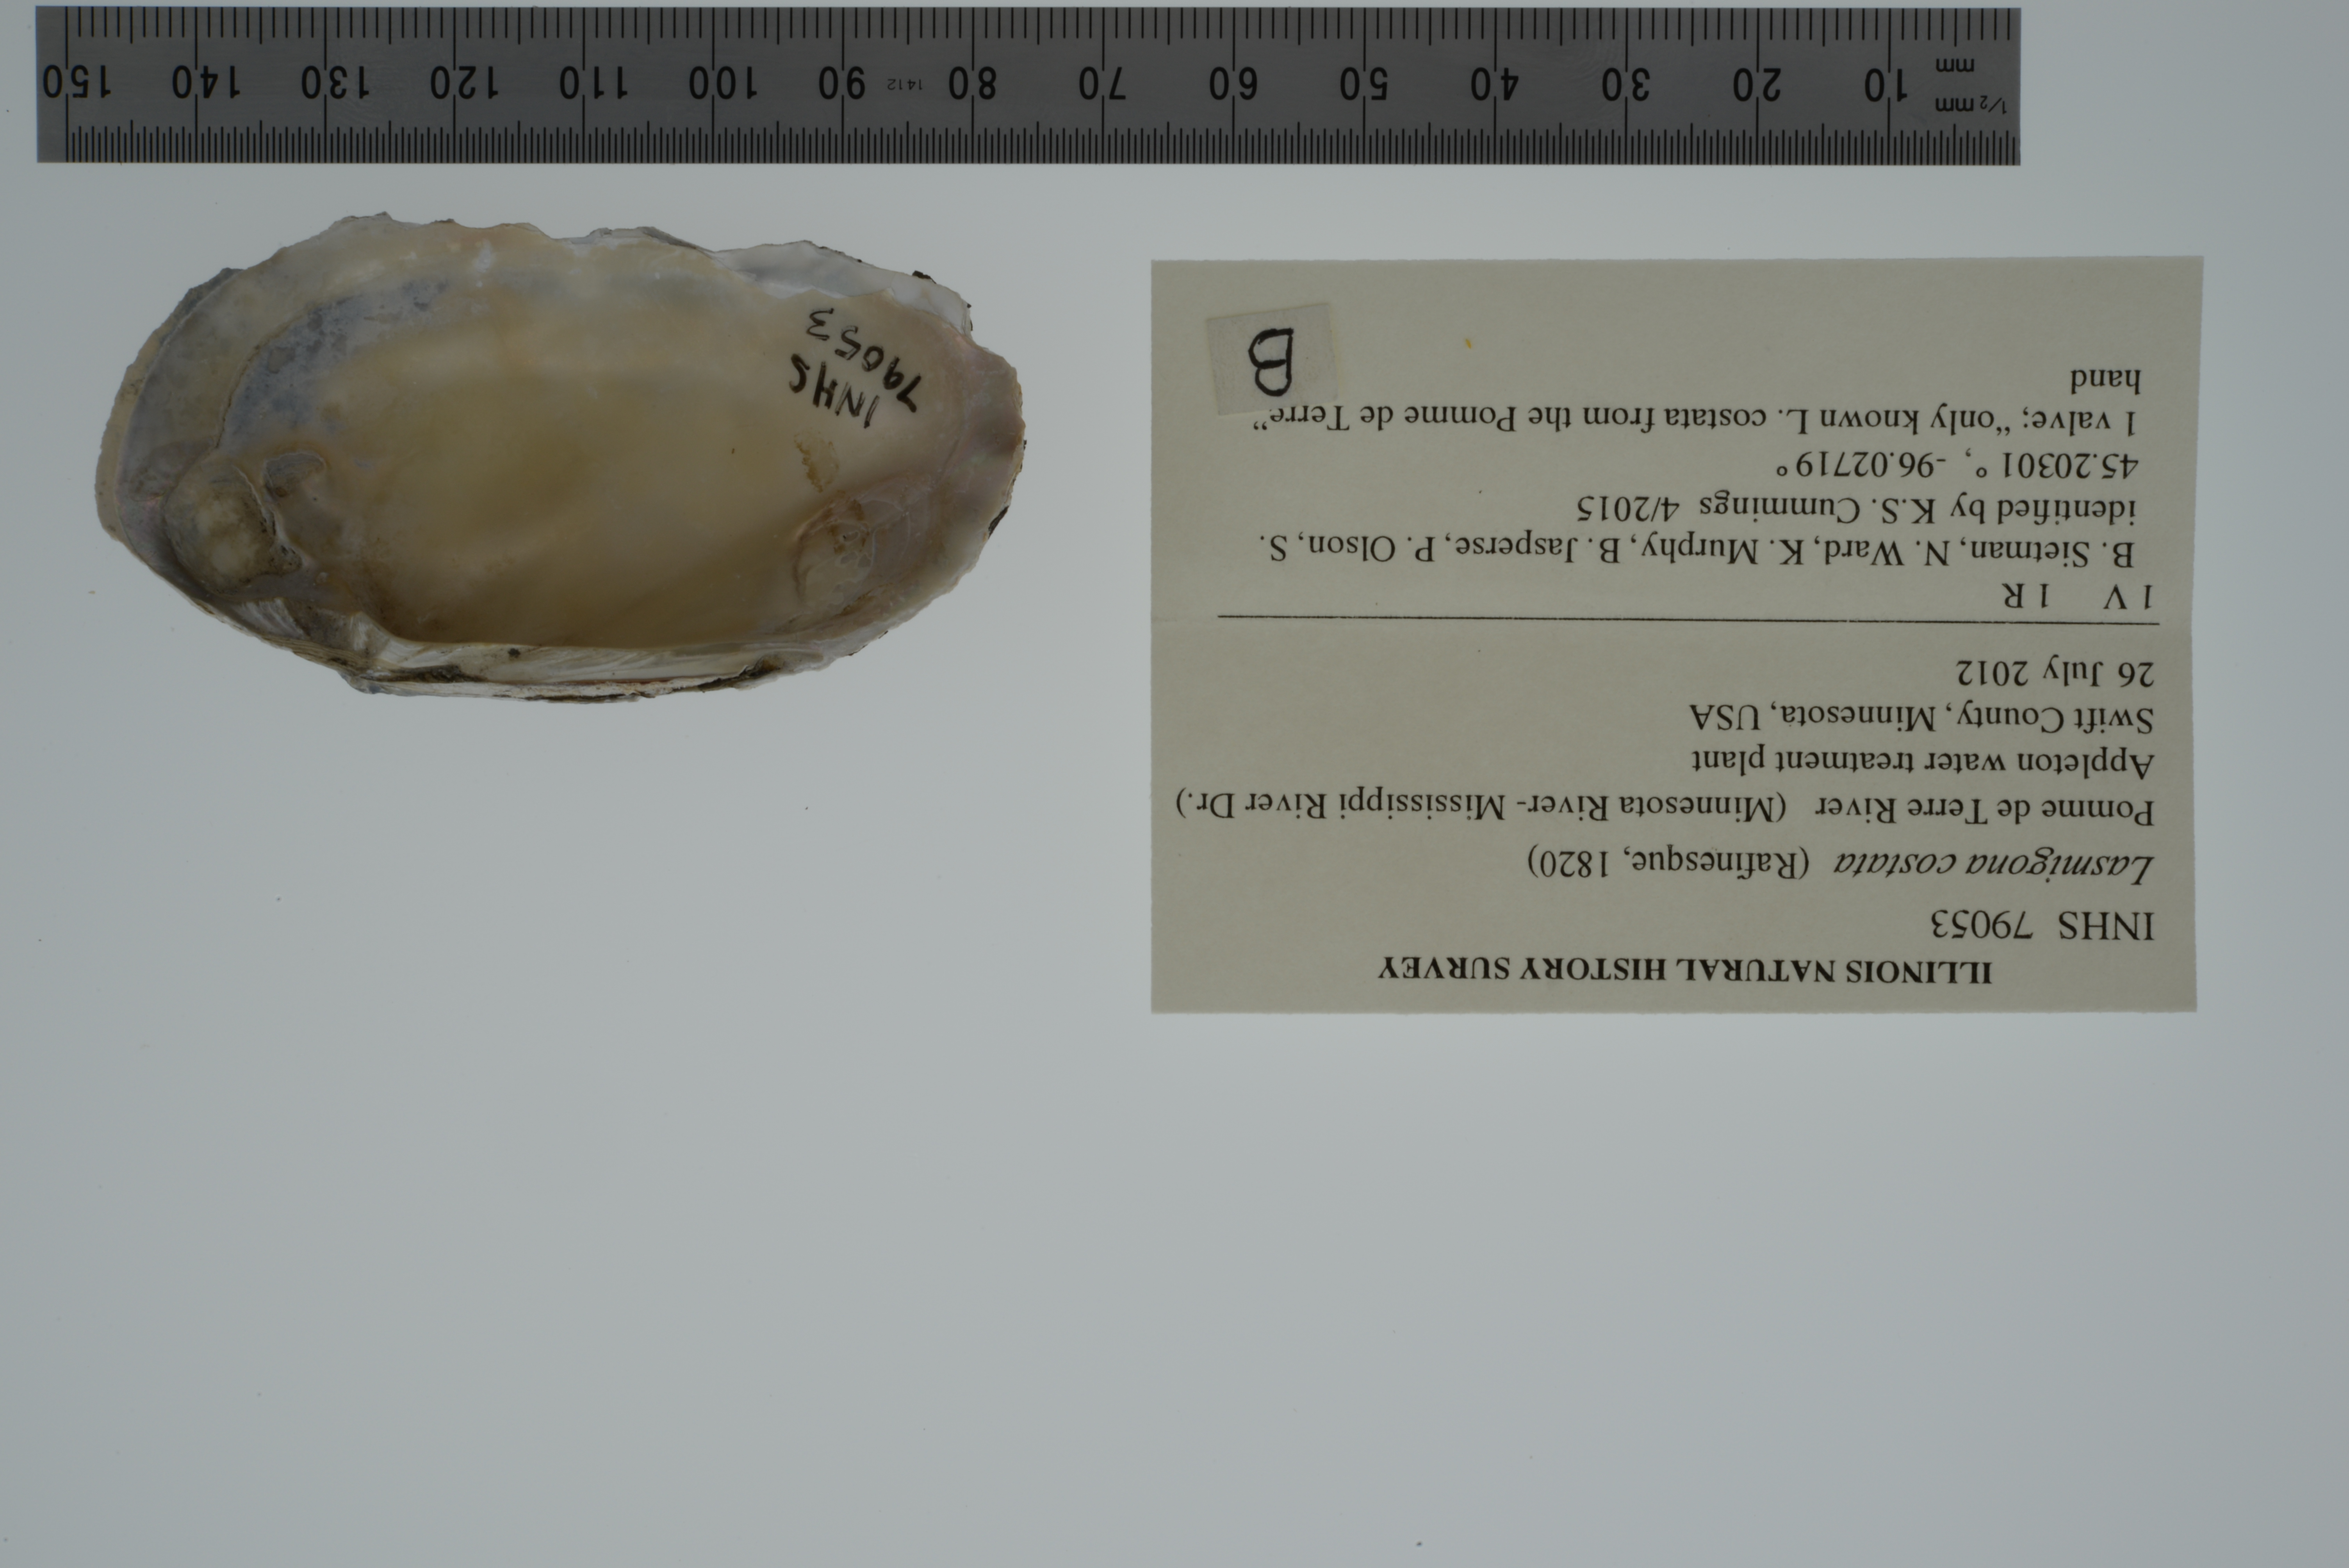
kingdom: Animalia
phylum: Mollusca
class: Bivalvia
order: Unionida
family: Unionidae
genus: Lasmigona
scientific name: Lasmigona costata
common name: Flutedshell
